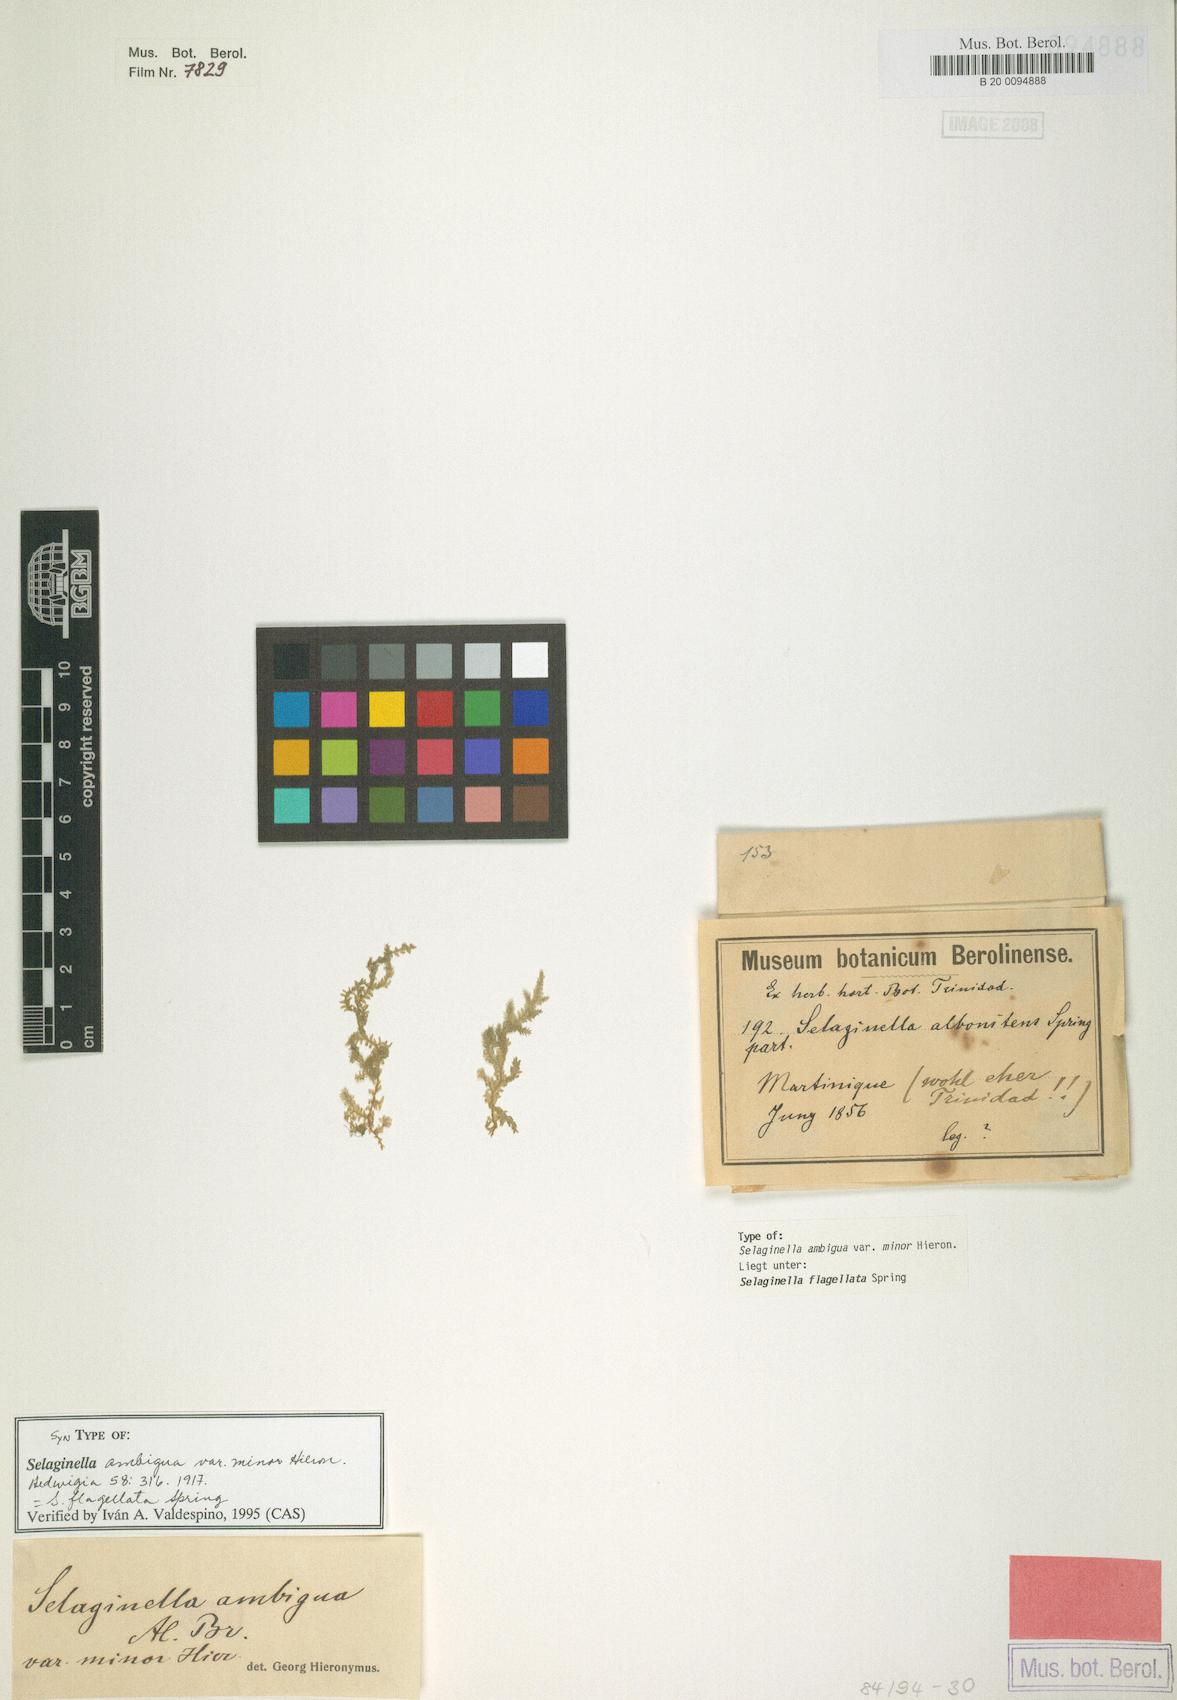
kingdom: Plantae
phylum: Tracheophyta
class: Lycopodiopsida
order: Selaginellales
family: Selaginellaceae
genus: Selaginella
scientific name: Selaginella flagellata
